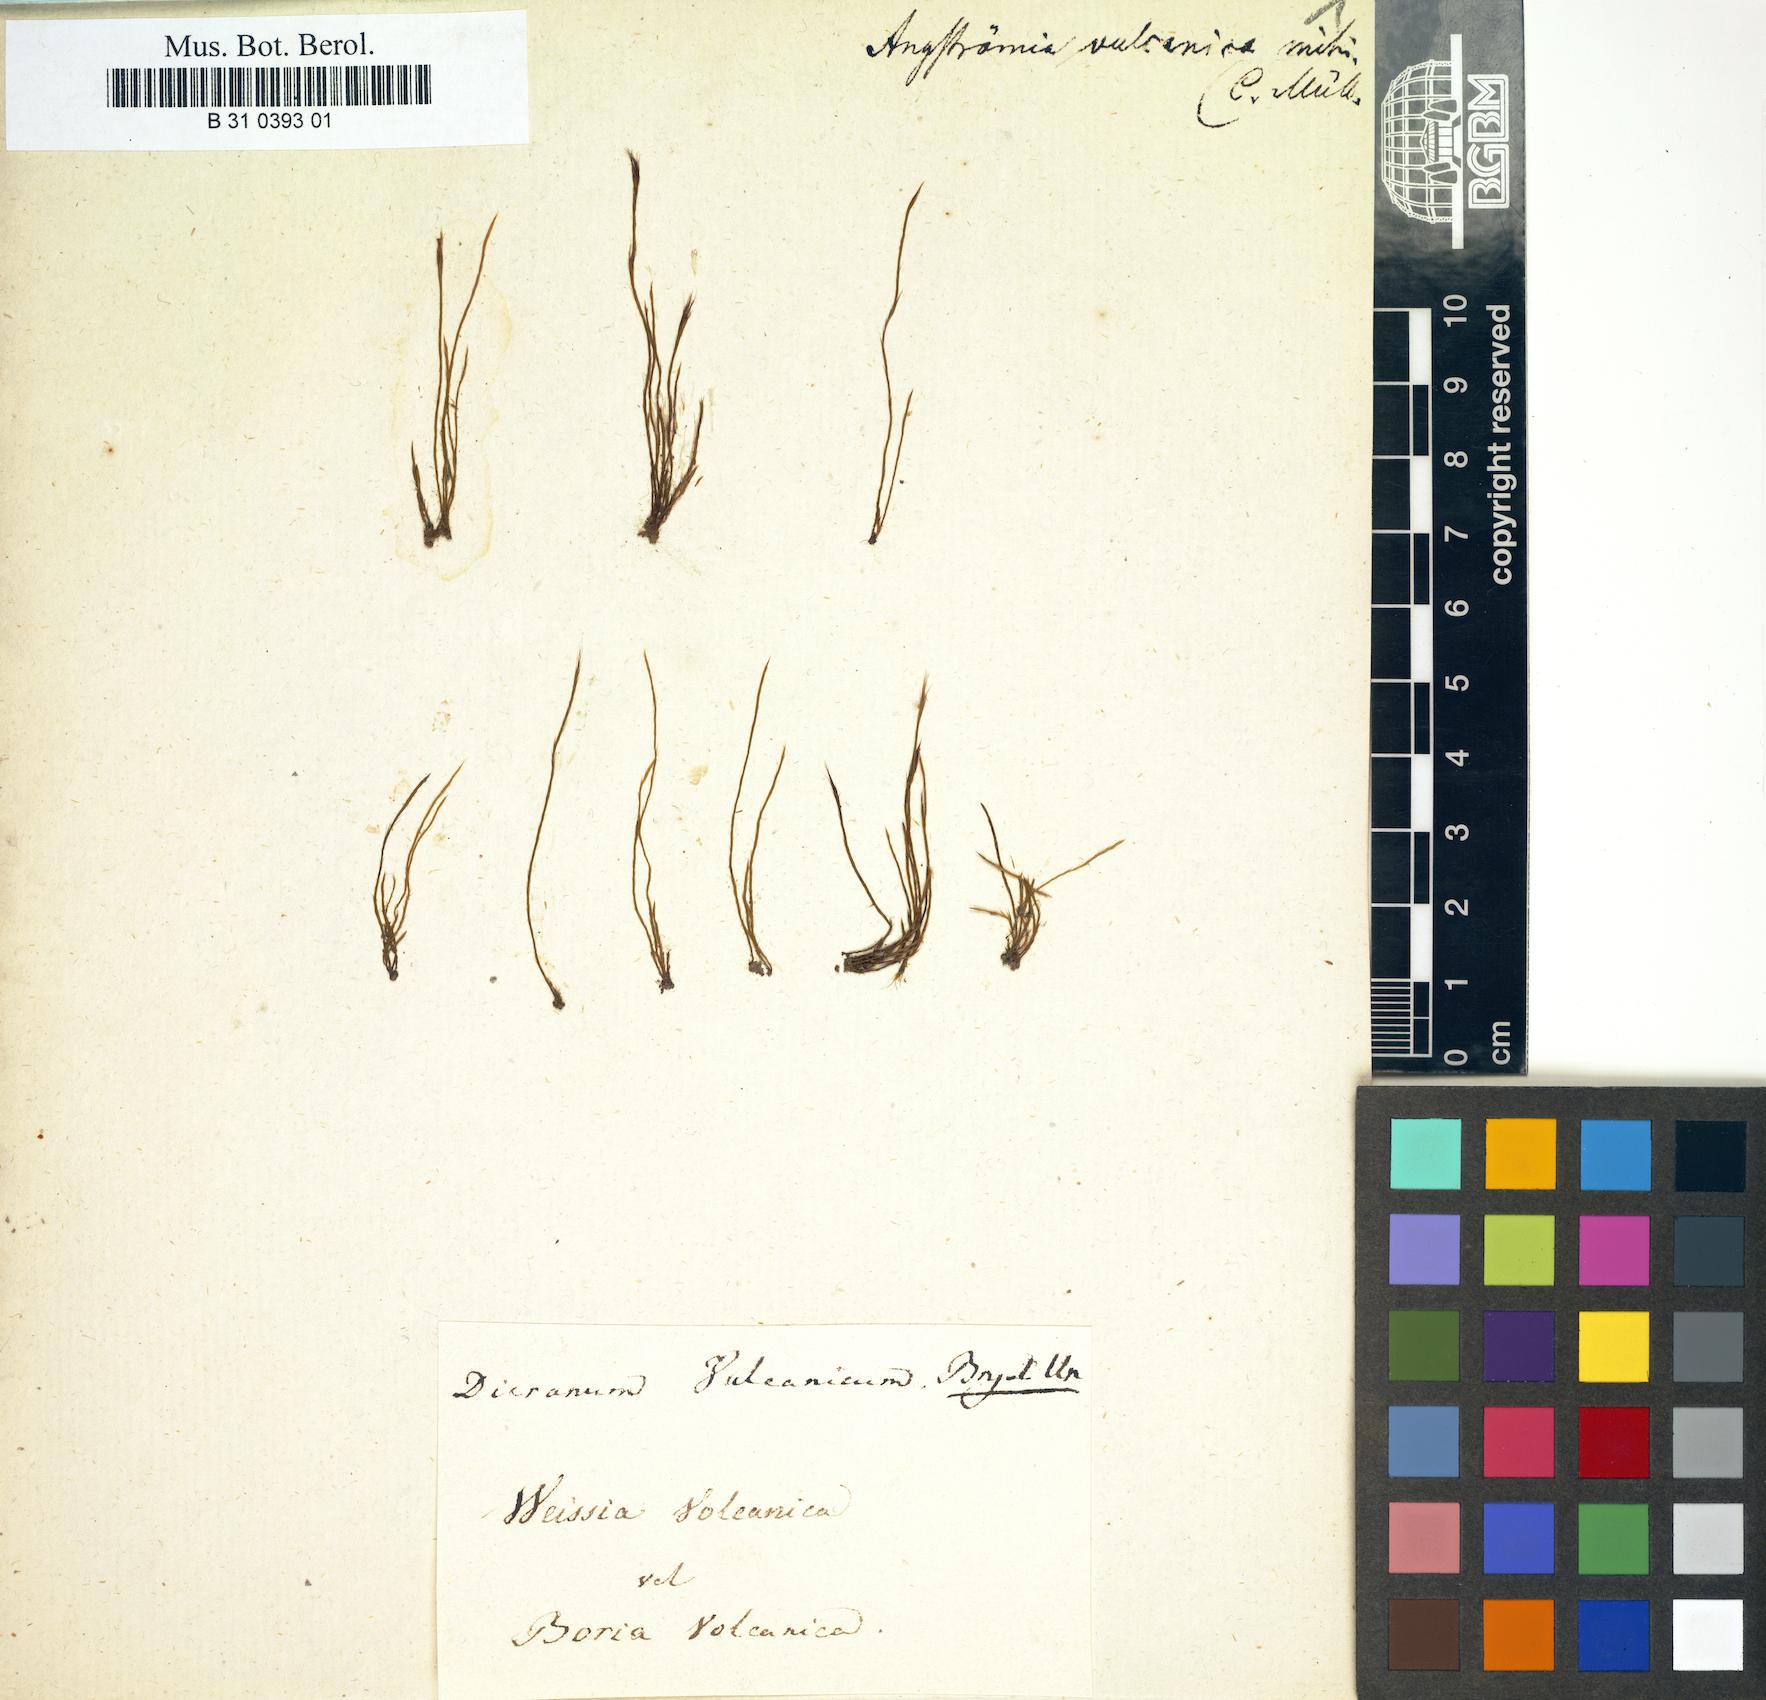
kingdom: Plantae
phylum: Bryophyta
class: Bryopsida
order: Dicranales
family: Aongstroemiaceae
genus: Aongstroemia
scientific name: Aongstroemia filiformis
